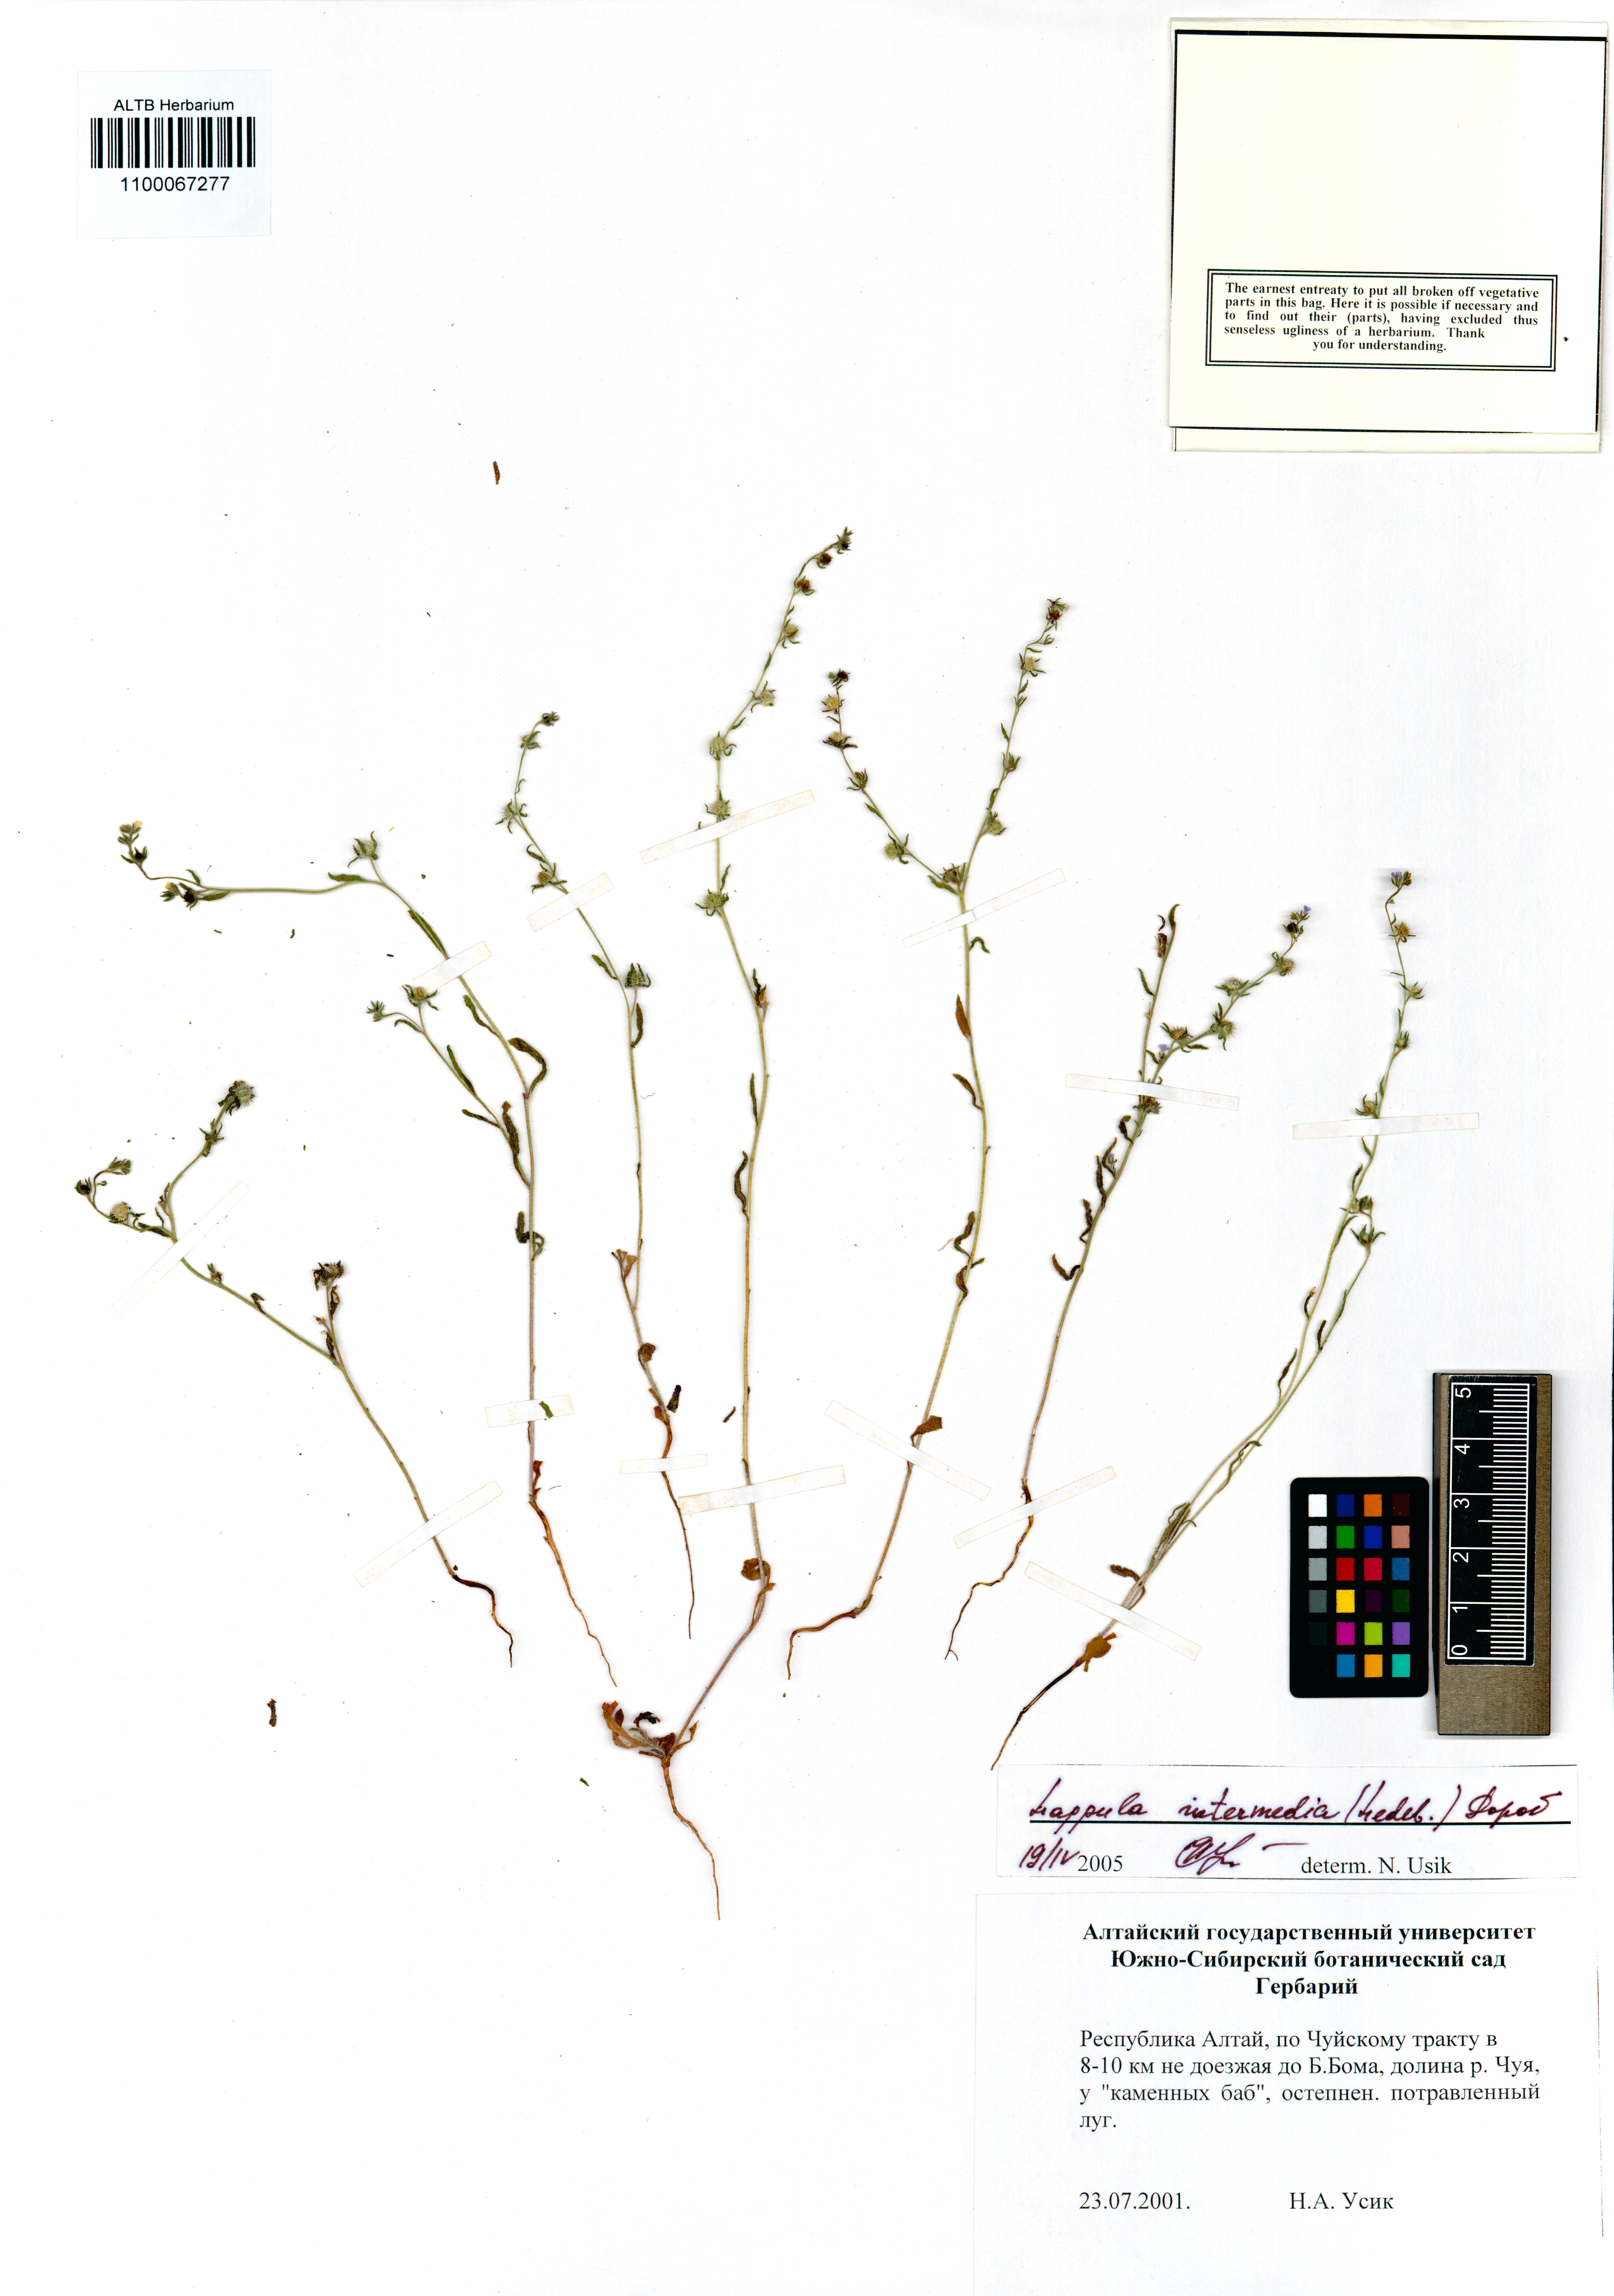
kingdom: Plantae
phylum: Tracheophyta
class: Magnoliopsida
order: Boraginales
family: Boraginaceae
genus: Lappula
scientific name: Lappula intermedia
